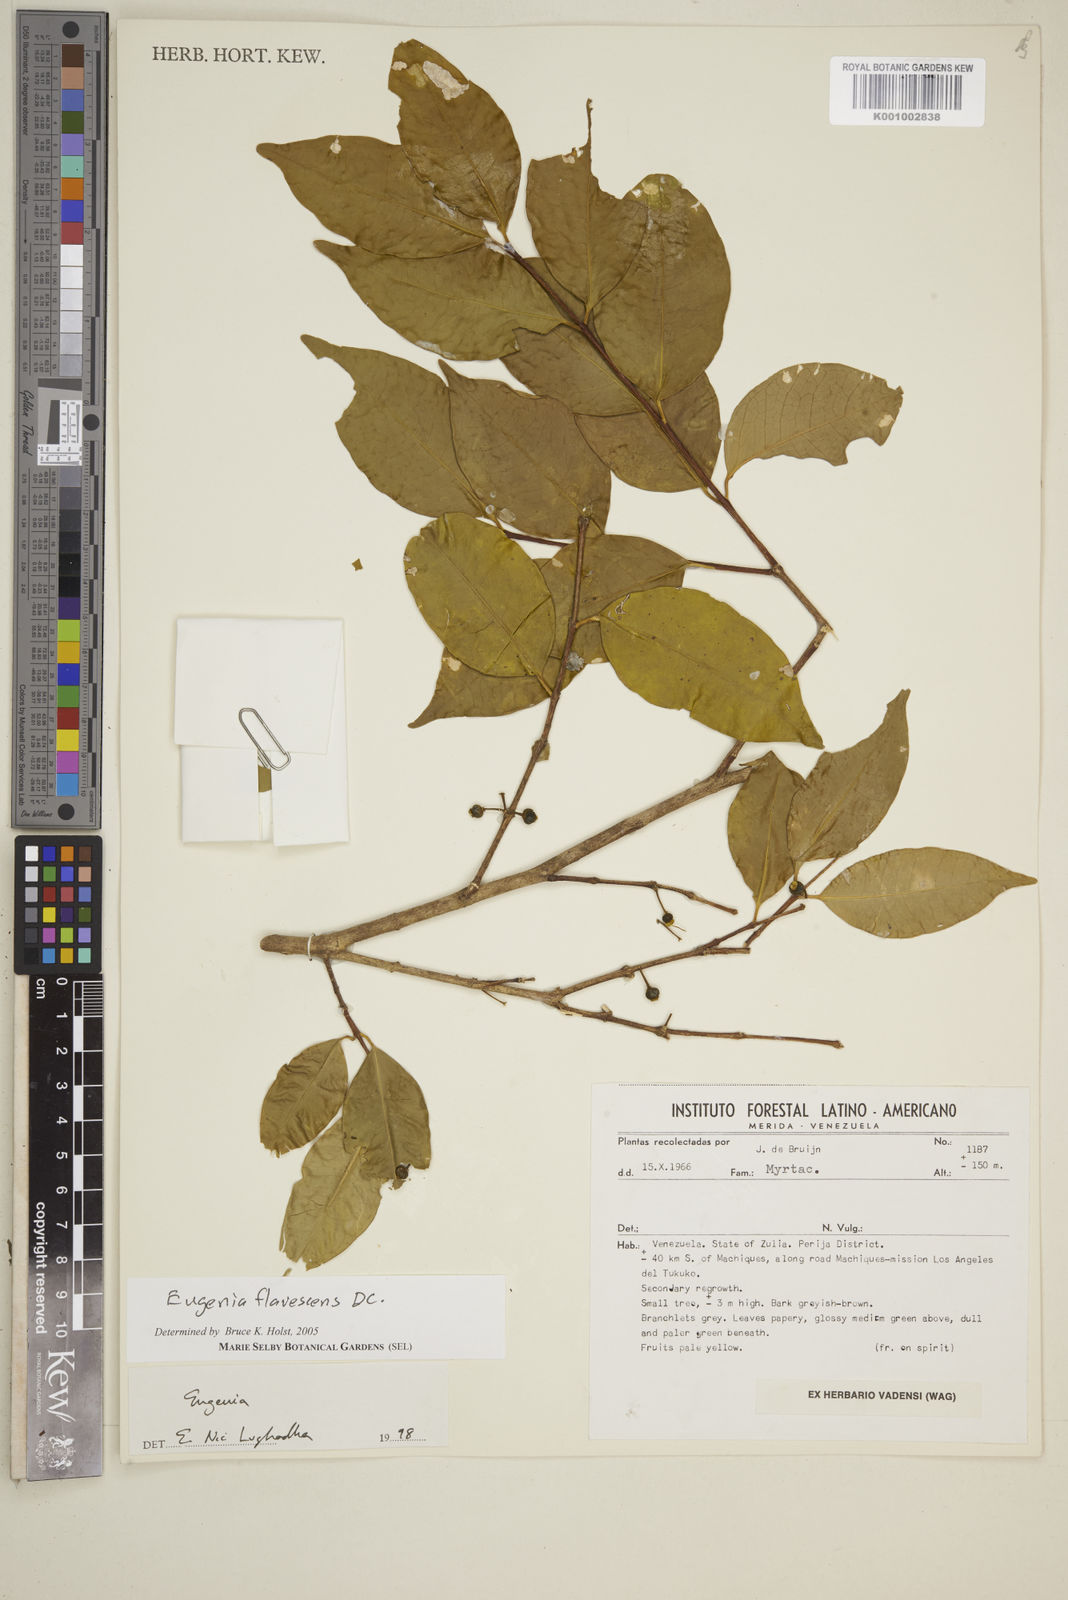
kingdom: Plantae
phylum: Tracheophyta
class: Magnoliopsida
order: Myrtales
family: Myrtaceae
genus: Eugenia
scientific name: Eugenia flavescens
